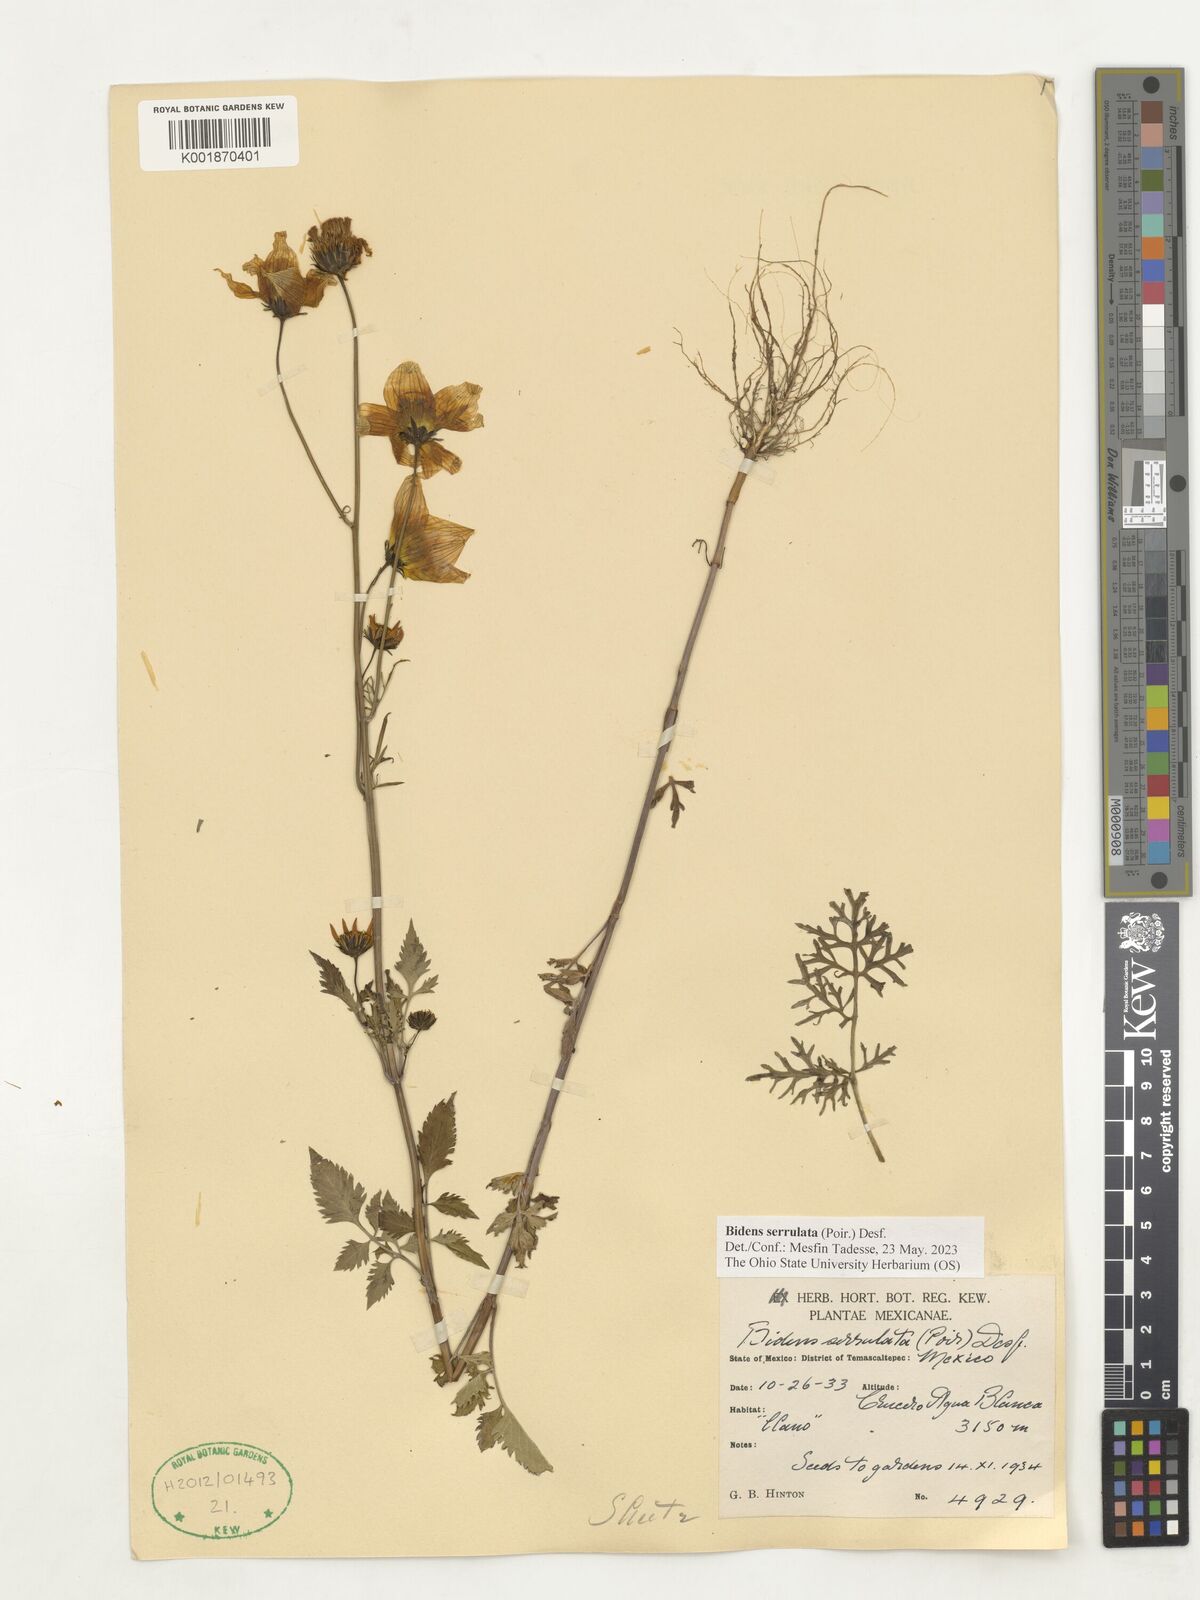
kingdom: Plantae
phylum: Tracheophyta
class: Magnoliopsida
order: Asterales
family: Asteraceae
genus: Bidens
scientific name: Bidens serrulata
